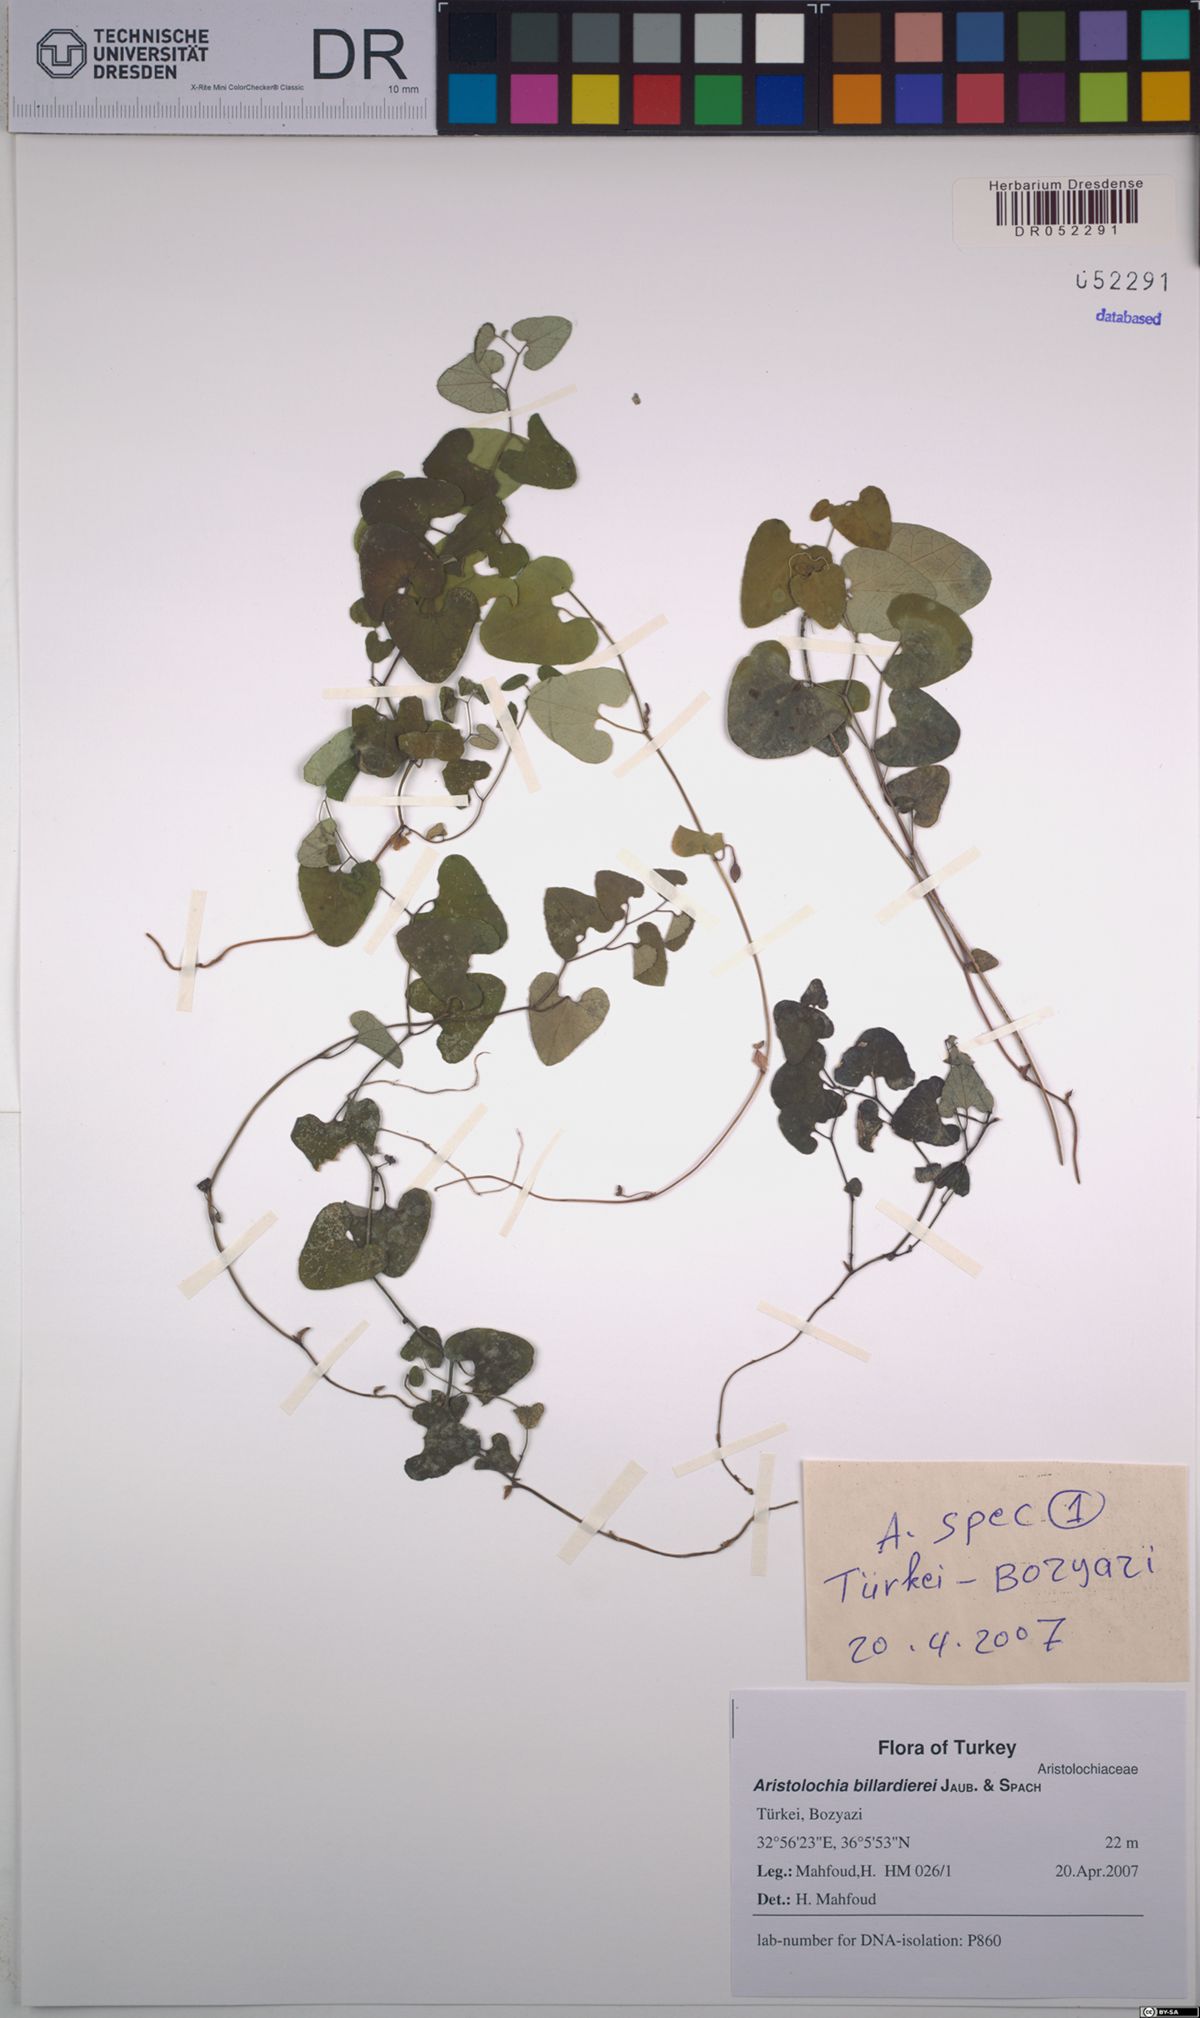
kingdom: Plantae
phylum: Tracheophyta
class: Magnoliopsida
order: Piperales
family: Aristolochiaceae
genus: Aristolochia
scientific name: Aristolochia billardieri
